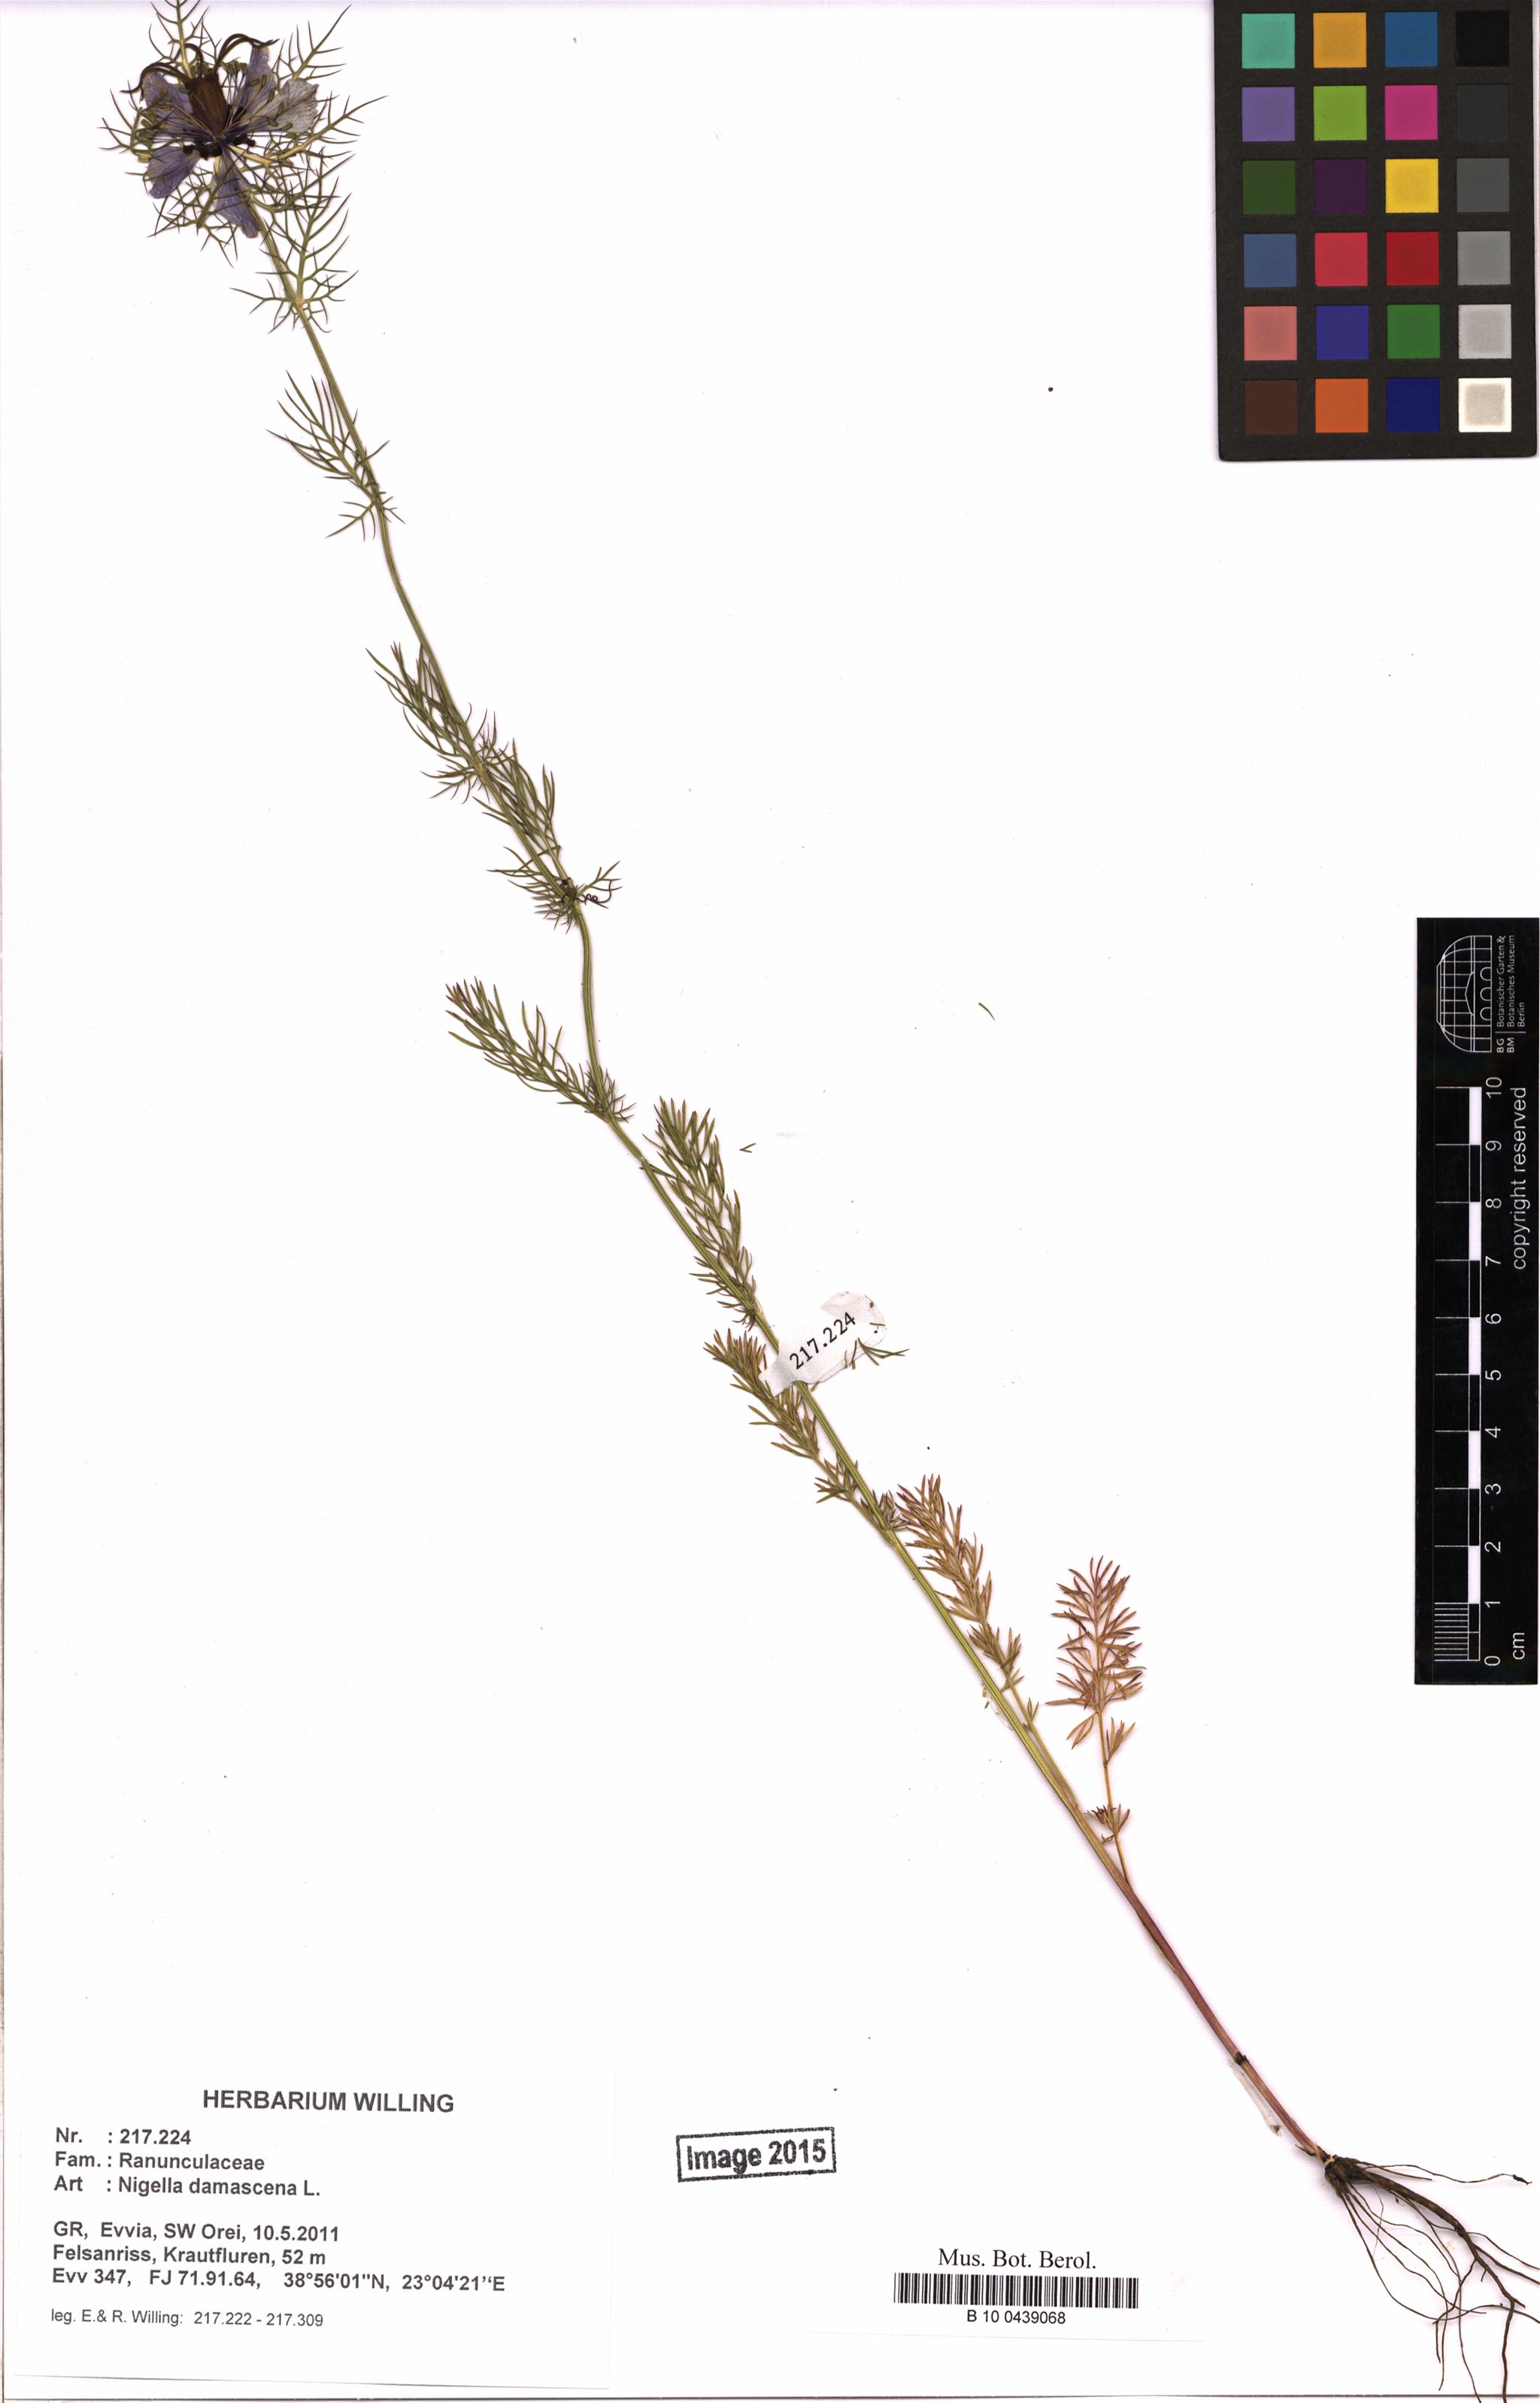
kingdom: Plantae
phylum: Tracheophyta
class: Magnoliopsida
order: Ranunculales
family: Ranunculaceae
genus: Nigella
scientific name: Nigella damascena
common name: Love-in-a-mist
